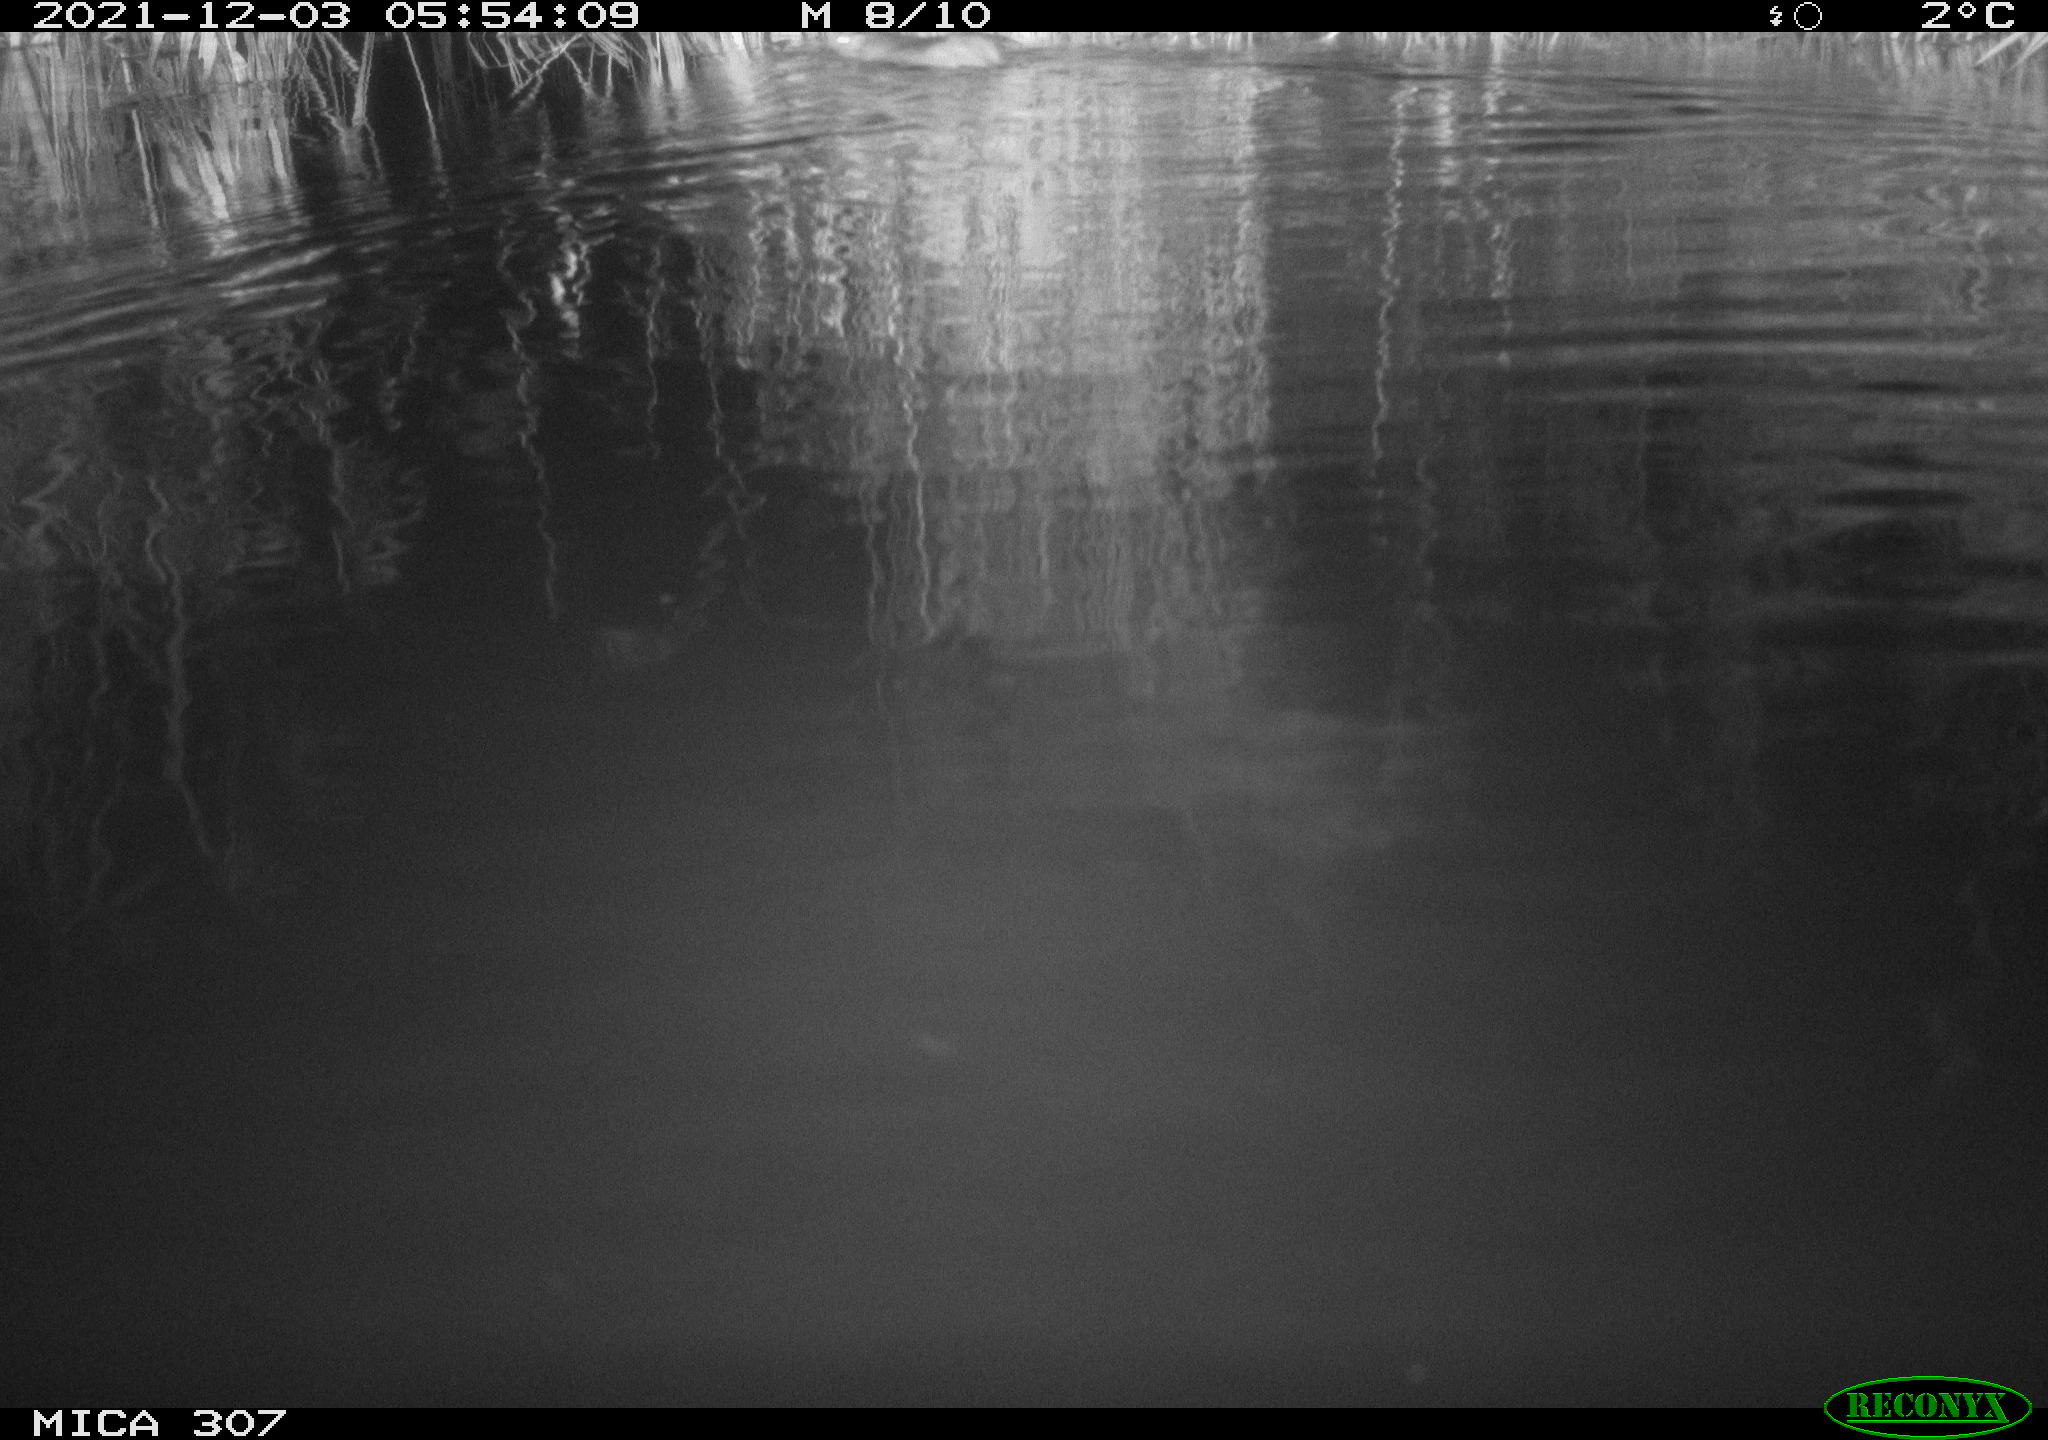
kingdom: Animalia
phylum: Chordata
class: Mammalia
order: Rodentia
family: Cricetidae
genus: Ondatra
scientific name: Ondatra zibethicus
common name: Muskrat
